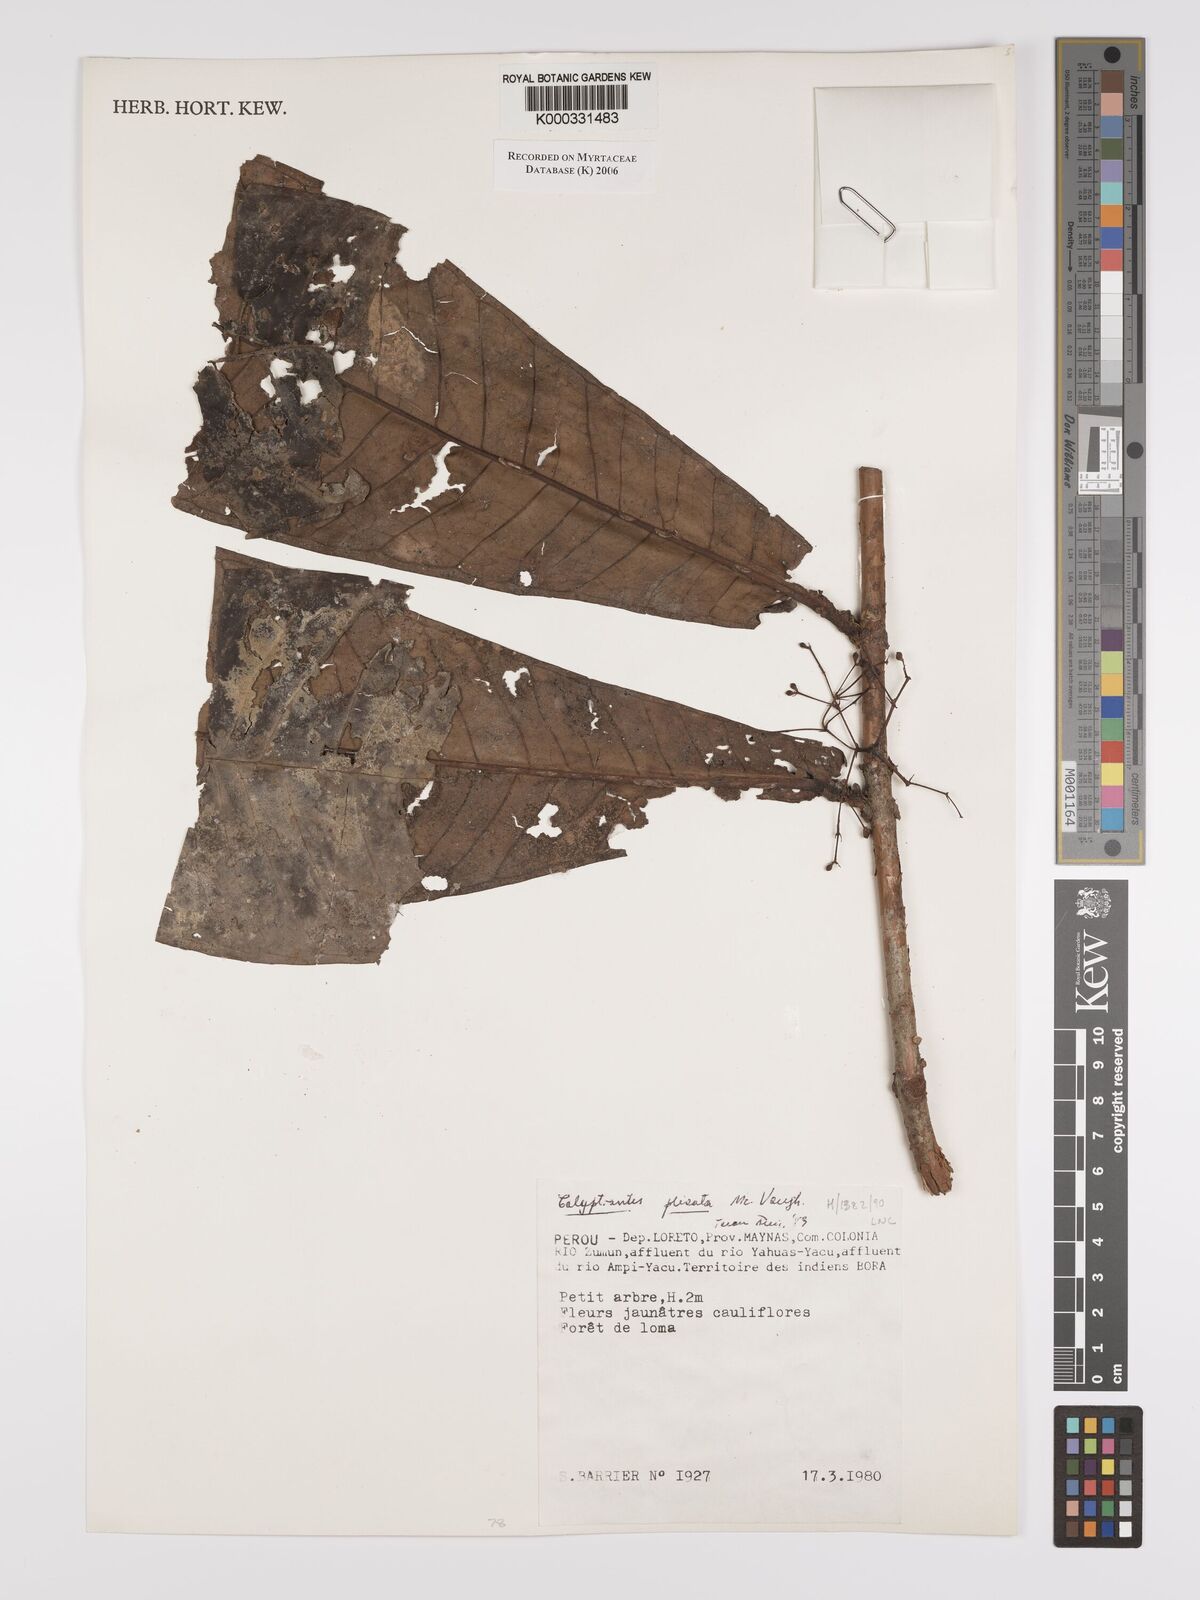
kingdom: Plantae
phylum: Tracheophyta
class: Magnoliopsida
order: Myrtales
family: Myrtaceae
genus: Myrcia
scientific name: Myrcia plicata
